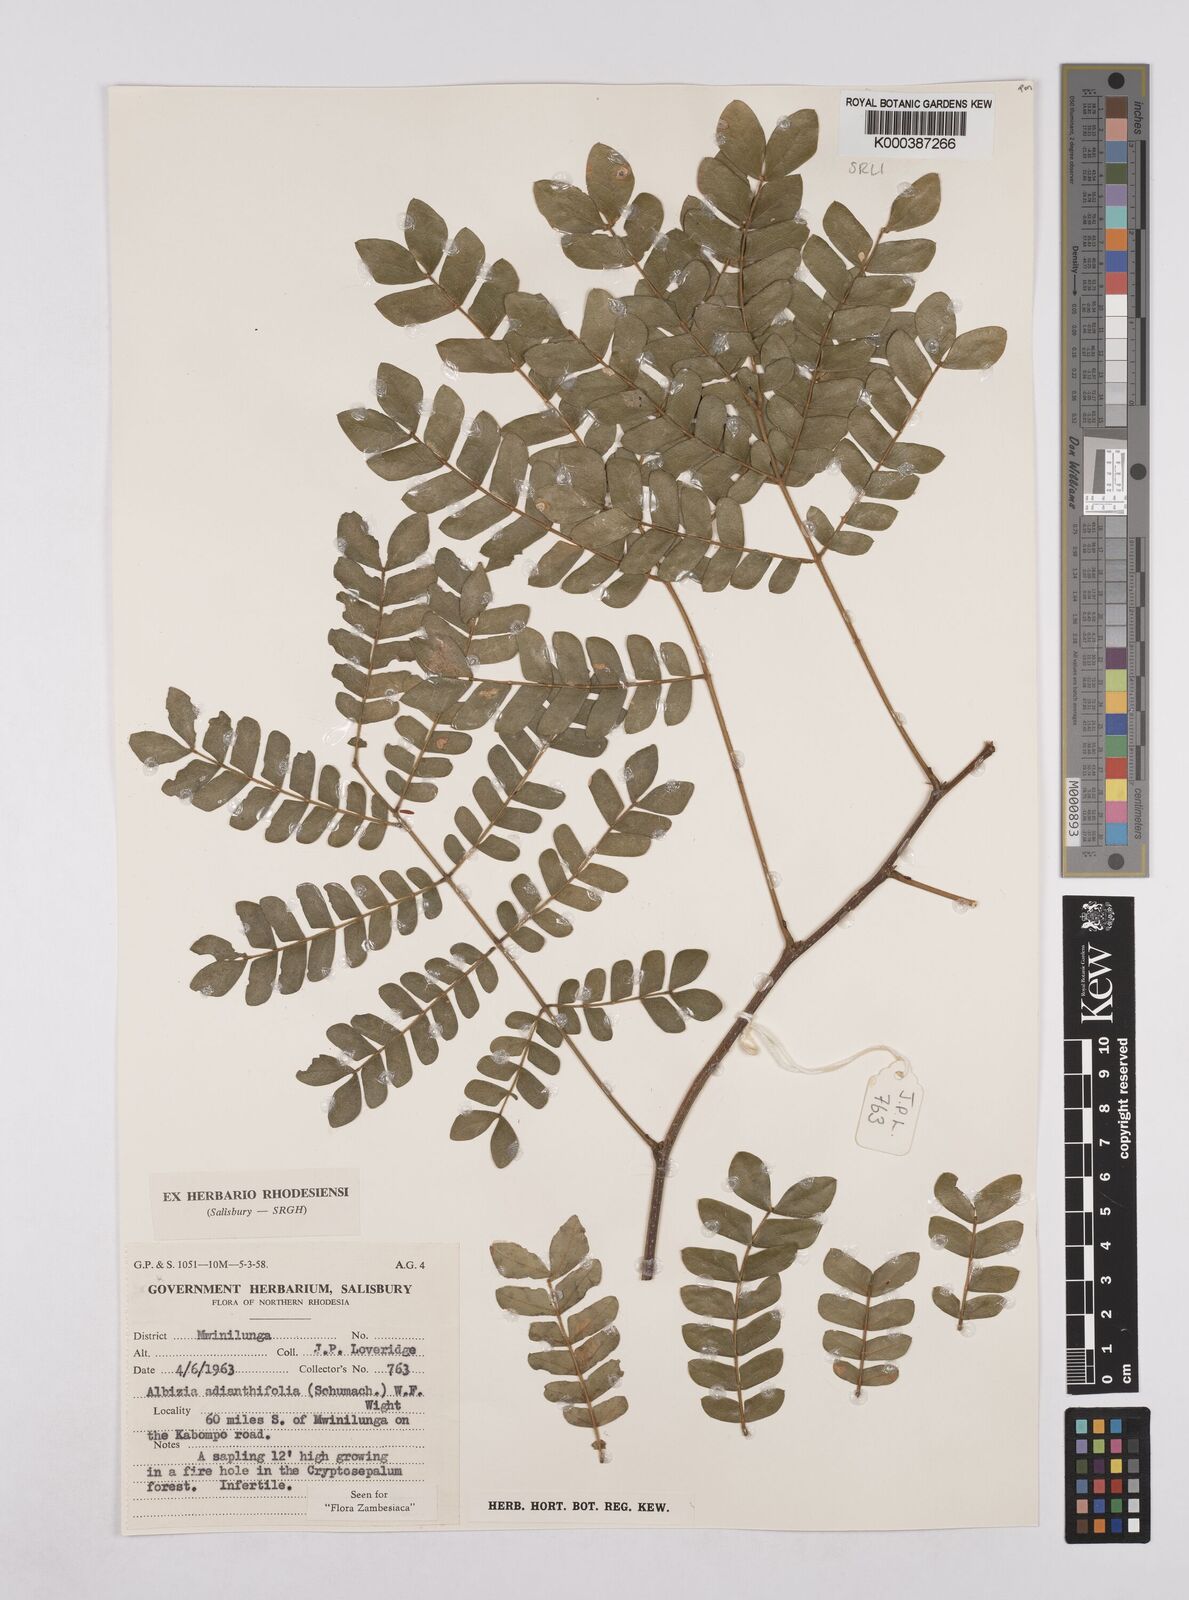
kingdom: Plantae
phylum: Tracheophyta
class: Magnoliopsida
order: Fabales
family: Fabaceae
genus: Albizia
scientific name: Albizia adianthifolia
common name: West african albizia
